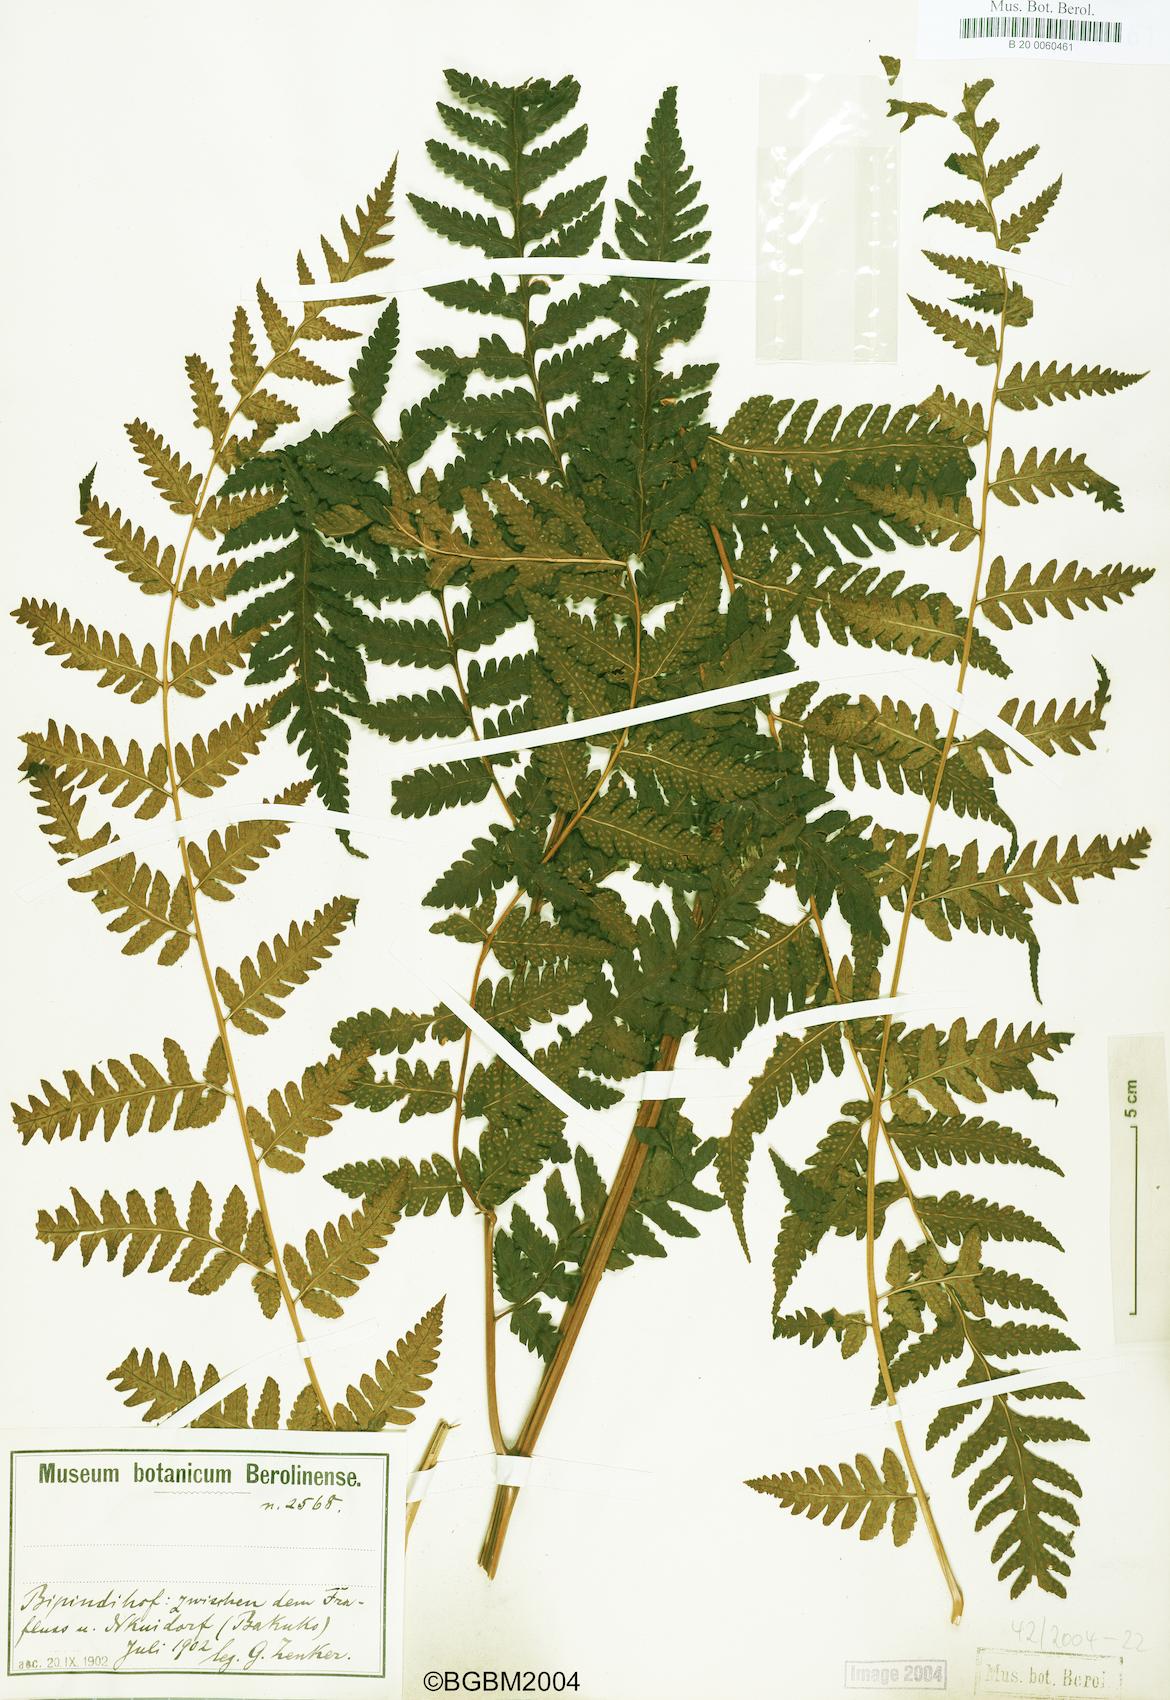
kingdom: Plantae
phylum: Tracheophyta
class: Polypodiopsida
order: Polypodiales
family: Dryopteridaceae
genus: Parapolystichum
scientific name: Parapolystichum nigritianum
